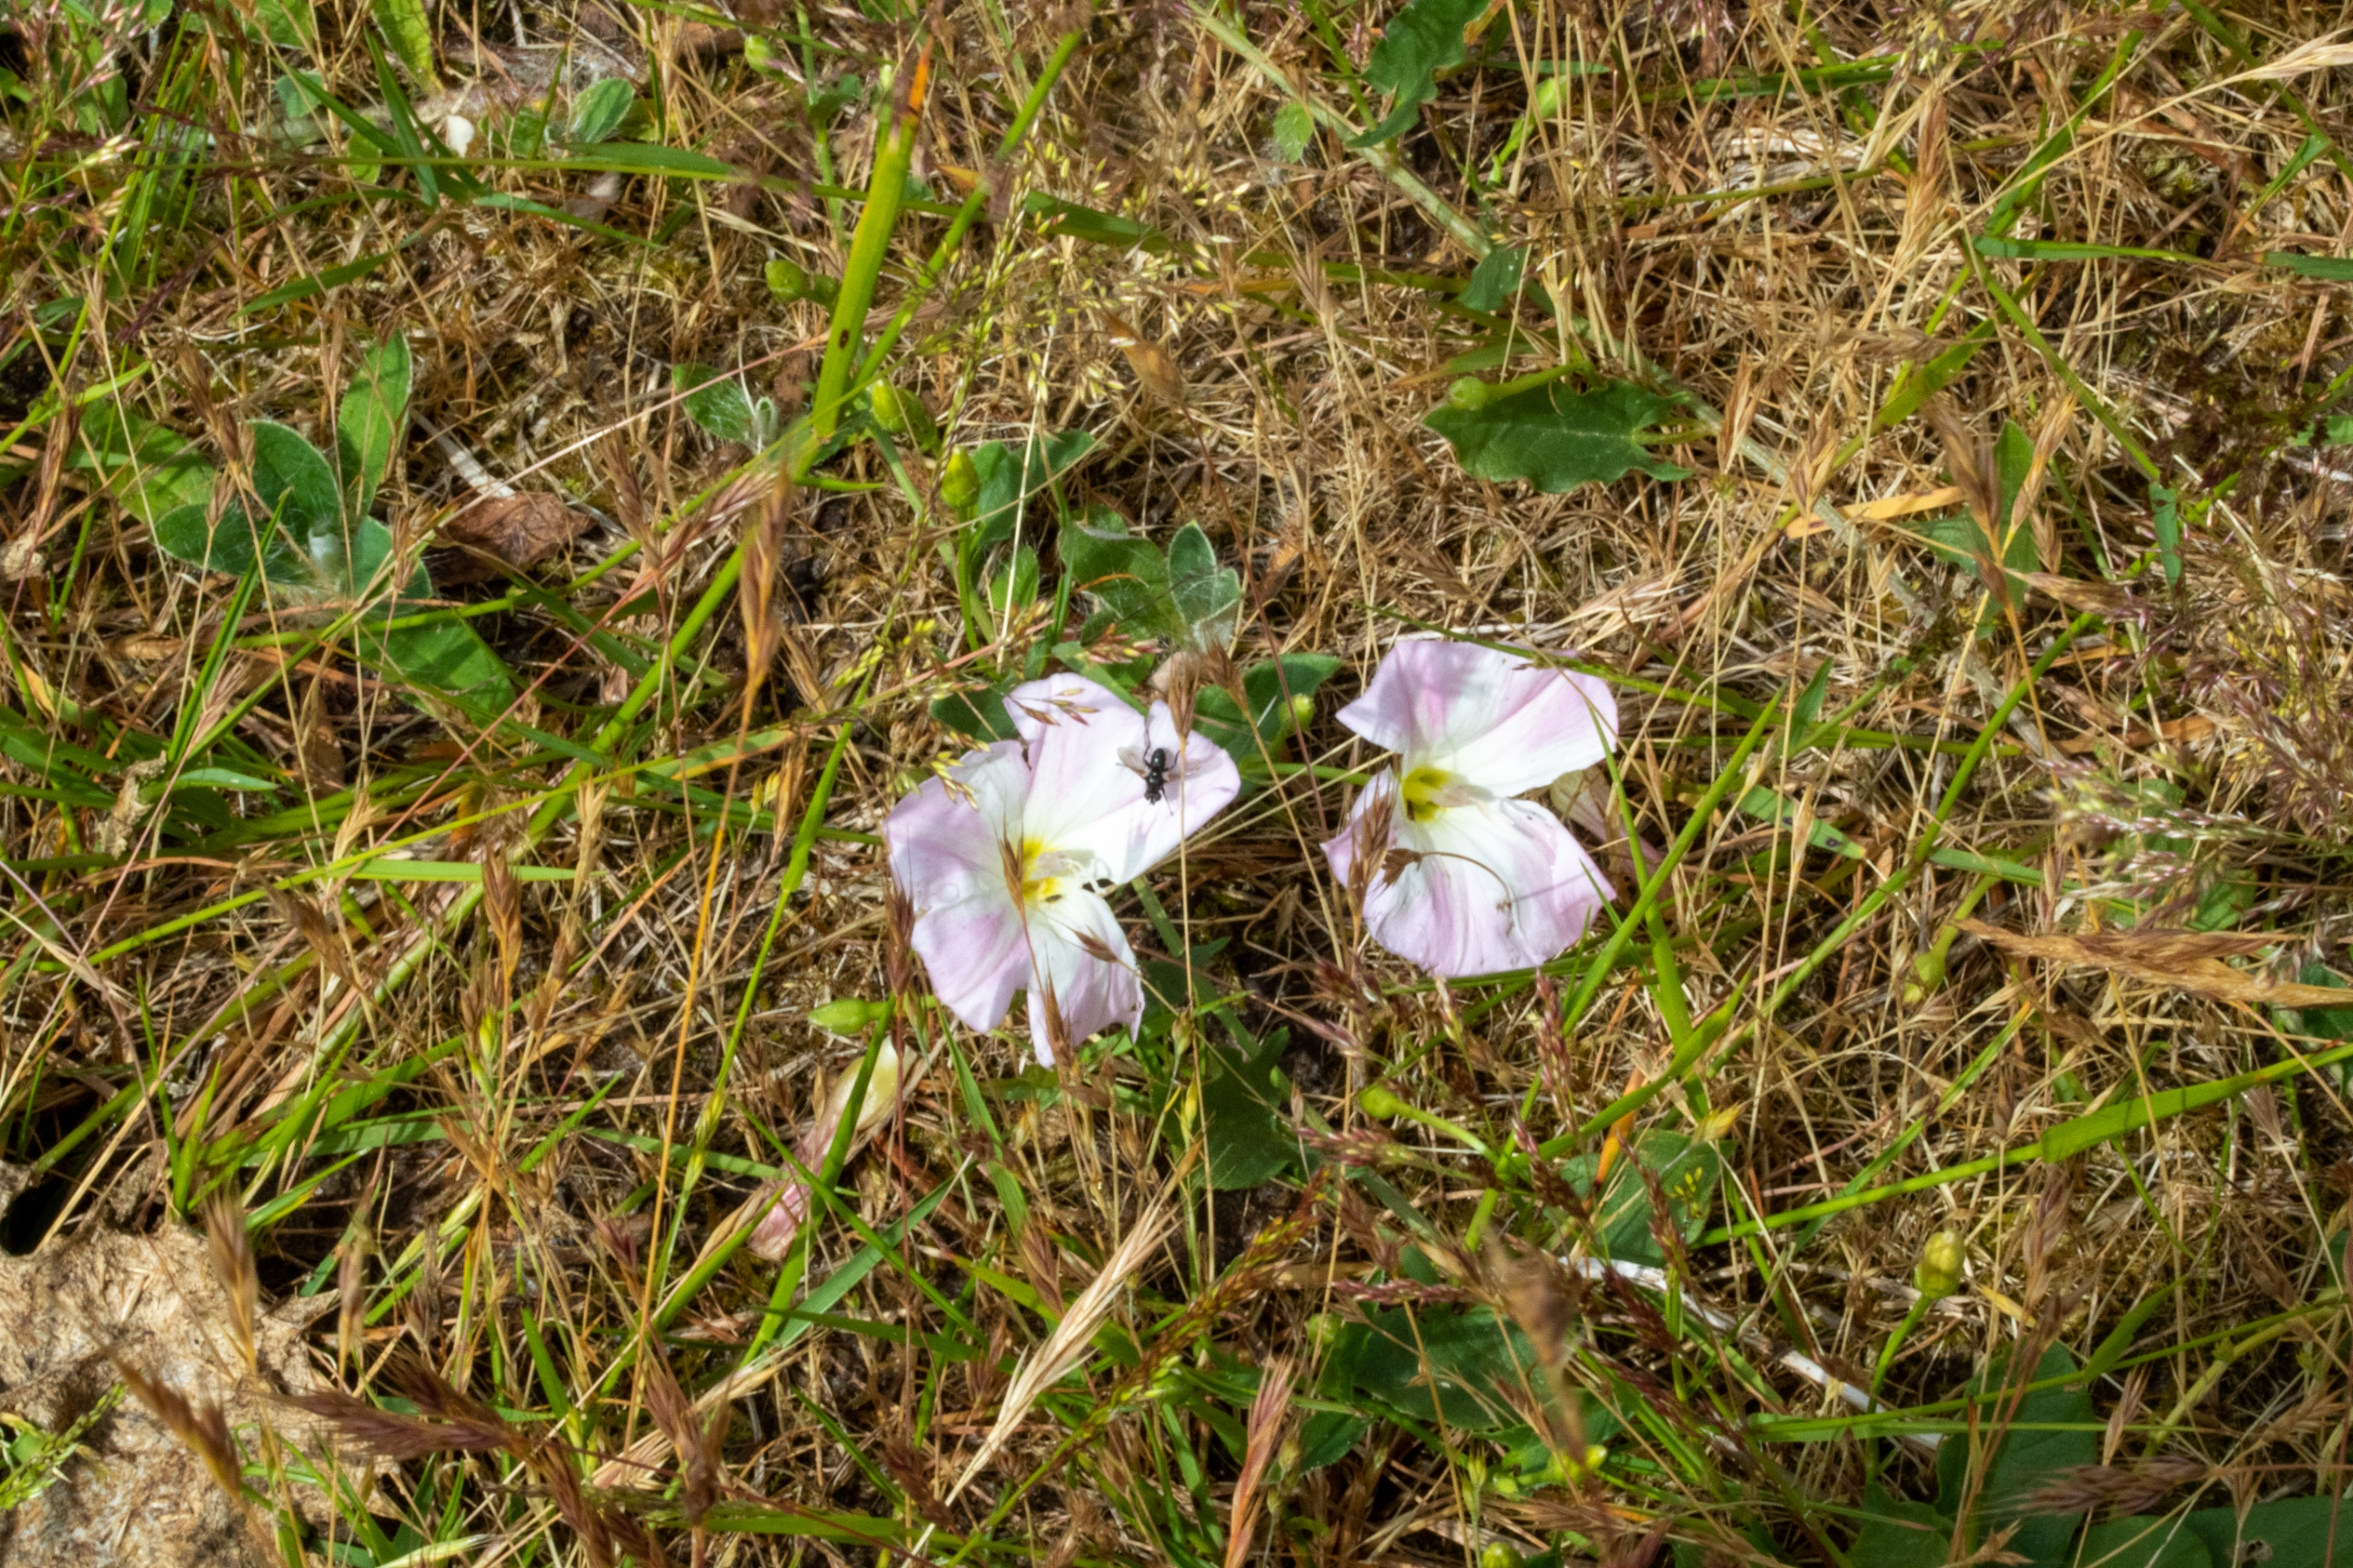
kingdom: Plantae
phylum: Tracheophyta
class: Magnoliopsida
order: Solanales
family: Convolvulaceae
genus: Convolvulus
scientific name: Convolvulus arvensis
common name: Ager-snerle
